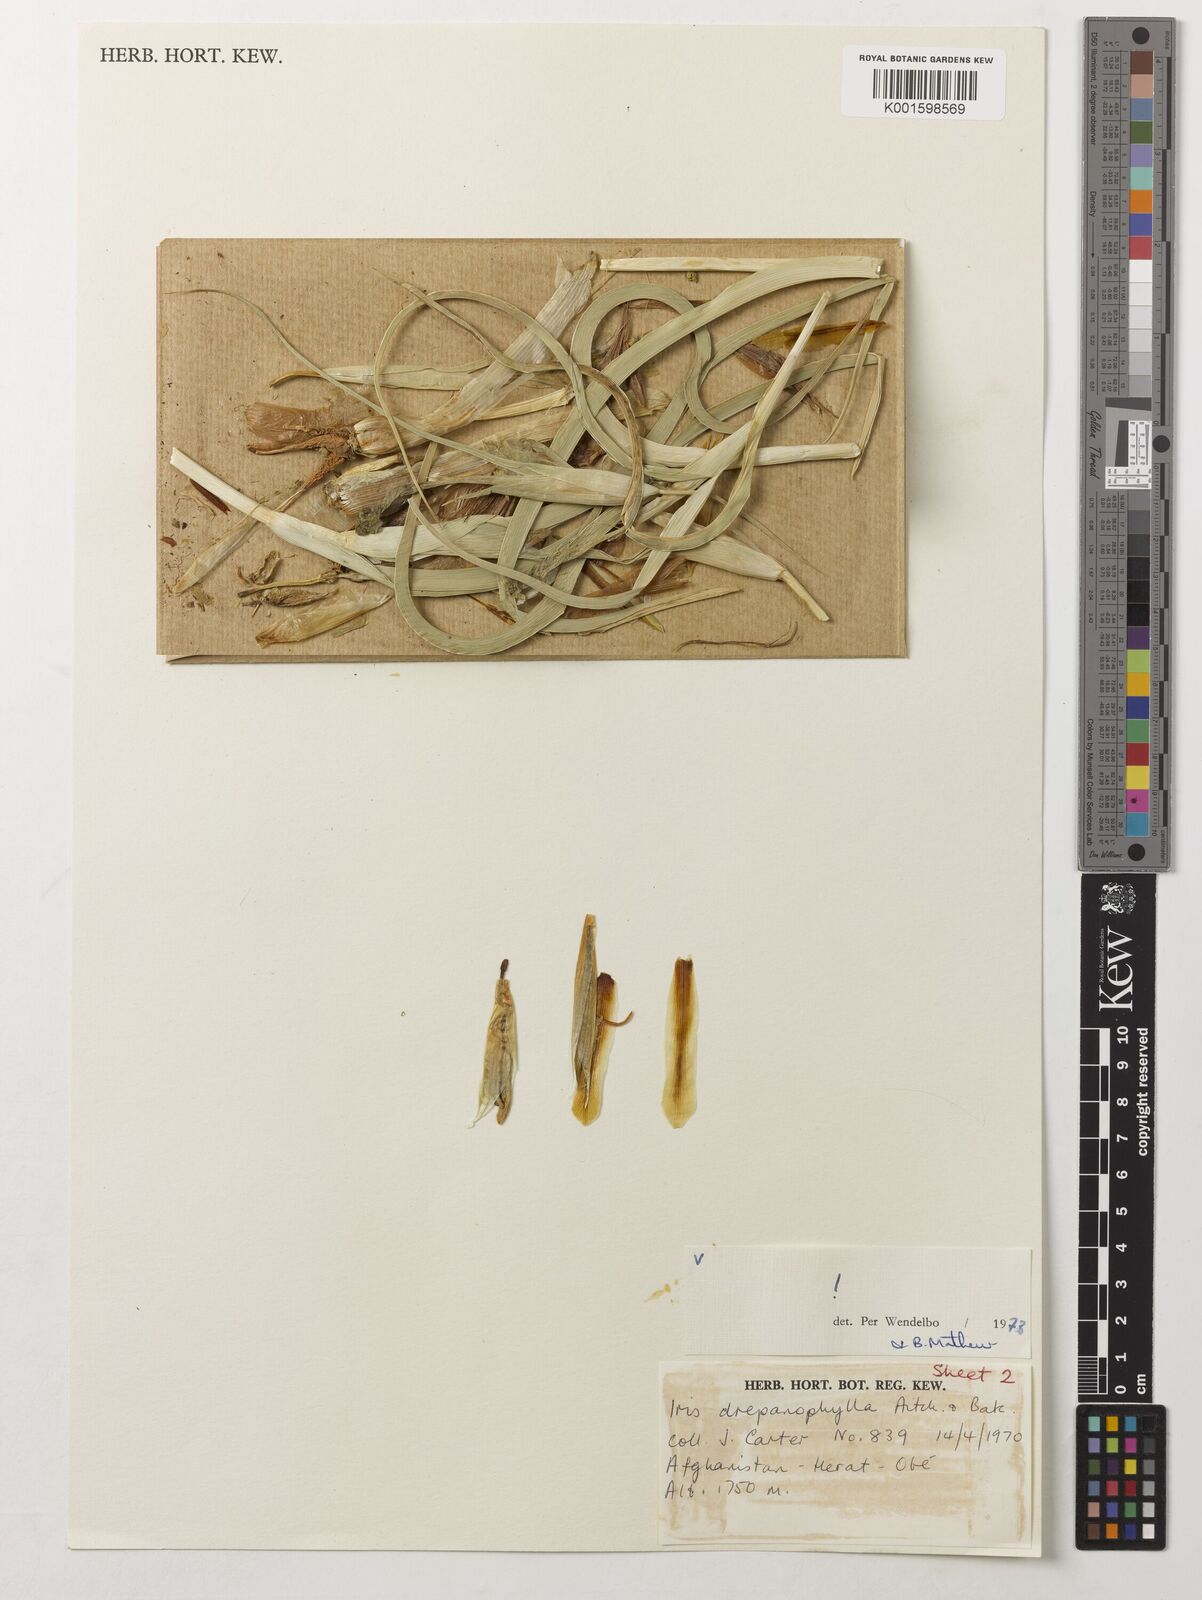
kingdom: Plantae
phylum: Tracheophyta
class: Liliopsida
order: Asparagales
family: Iridaceae
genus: Iris
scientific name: Iris drepanophylla
